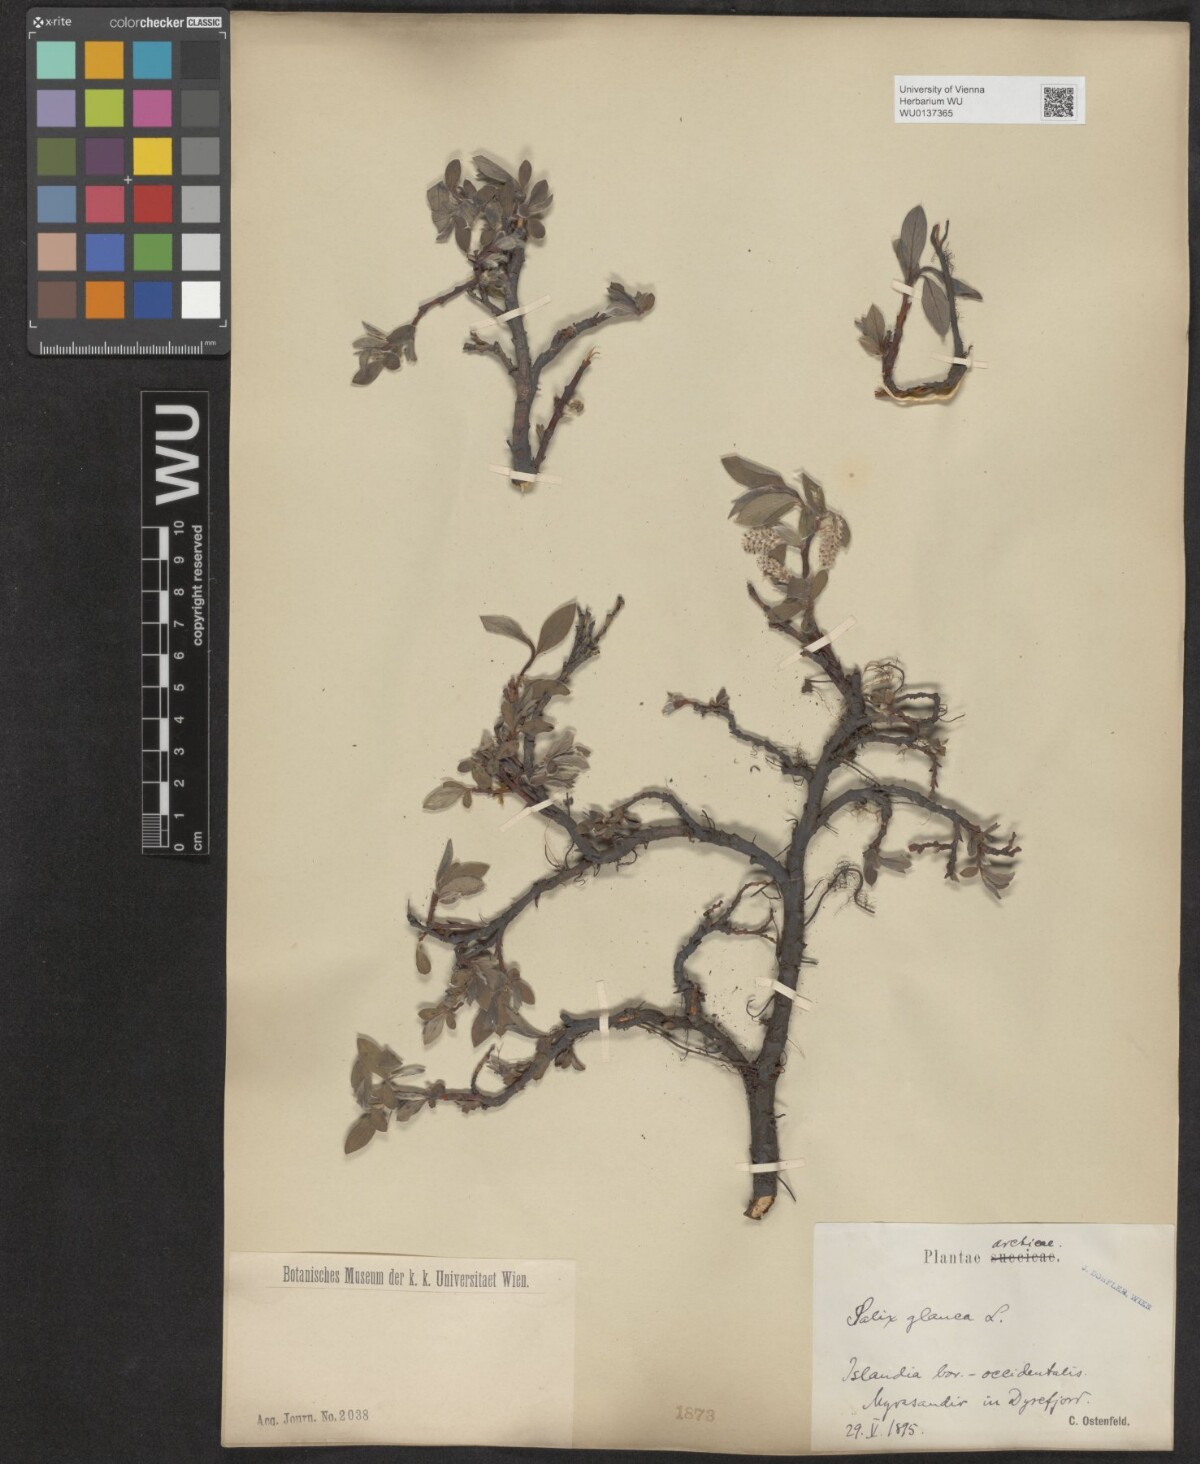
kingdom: Plantae
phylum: Tracheophyta
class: Magnoliopsida
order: Malpighiales
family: Salicaceae
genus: Salix
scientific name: Salix glauca
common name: Glaucous willow
